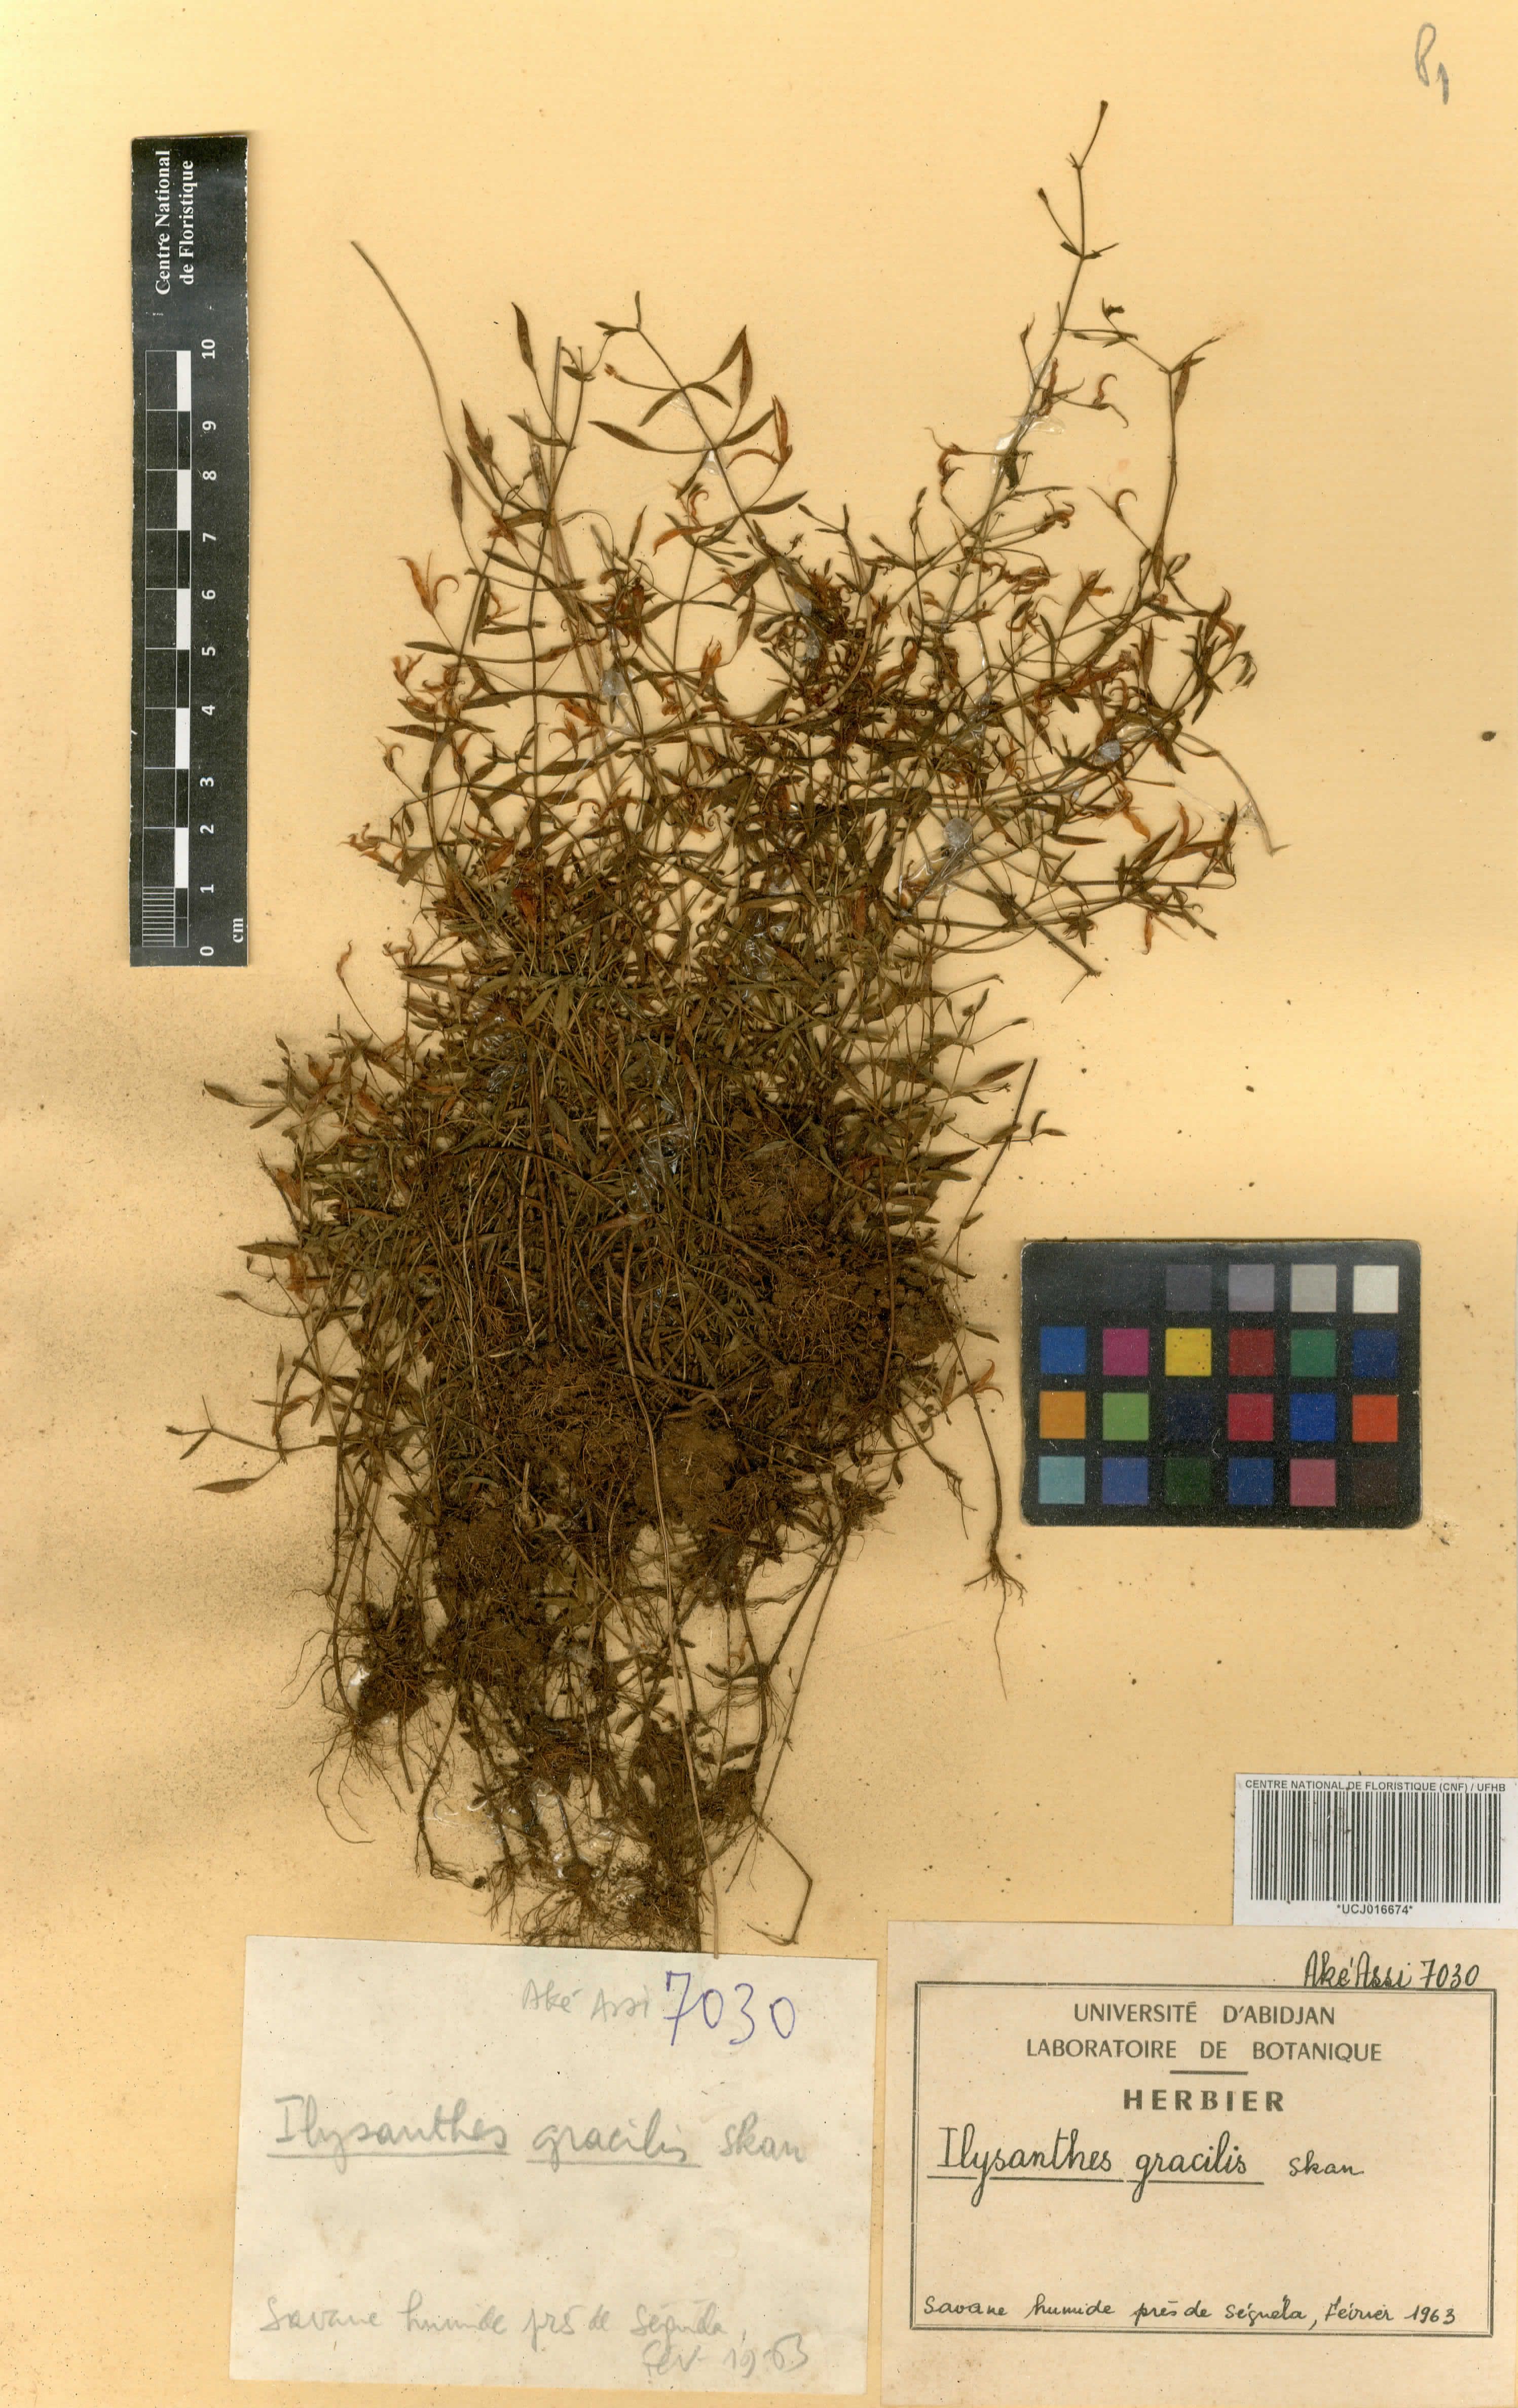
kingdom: Plantae
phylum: Tracheophyta
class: Magnoliopsida
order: Lamiales
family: Linderniaceae
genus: Linderniella
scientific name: Linderniella gracilis
